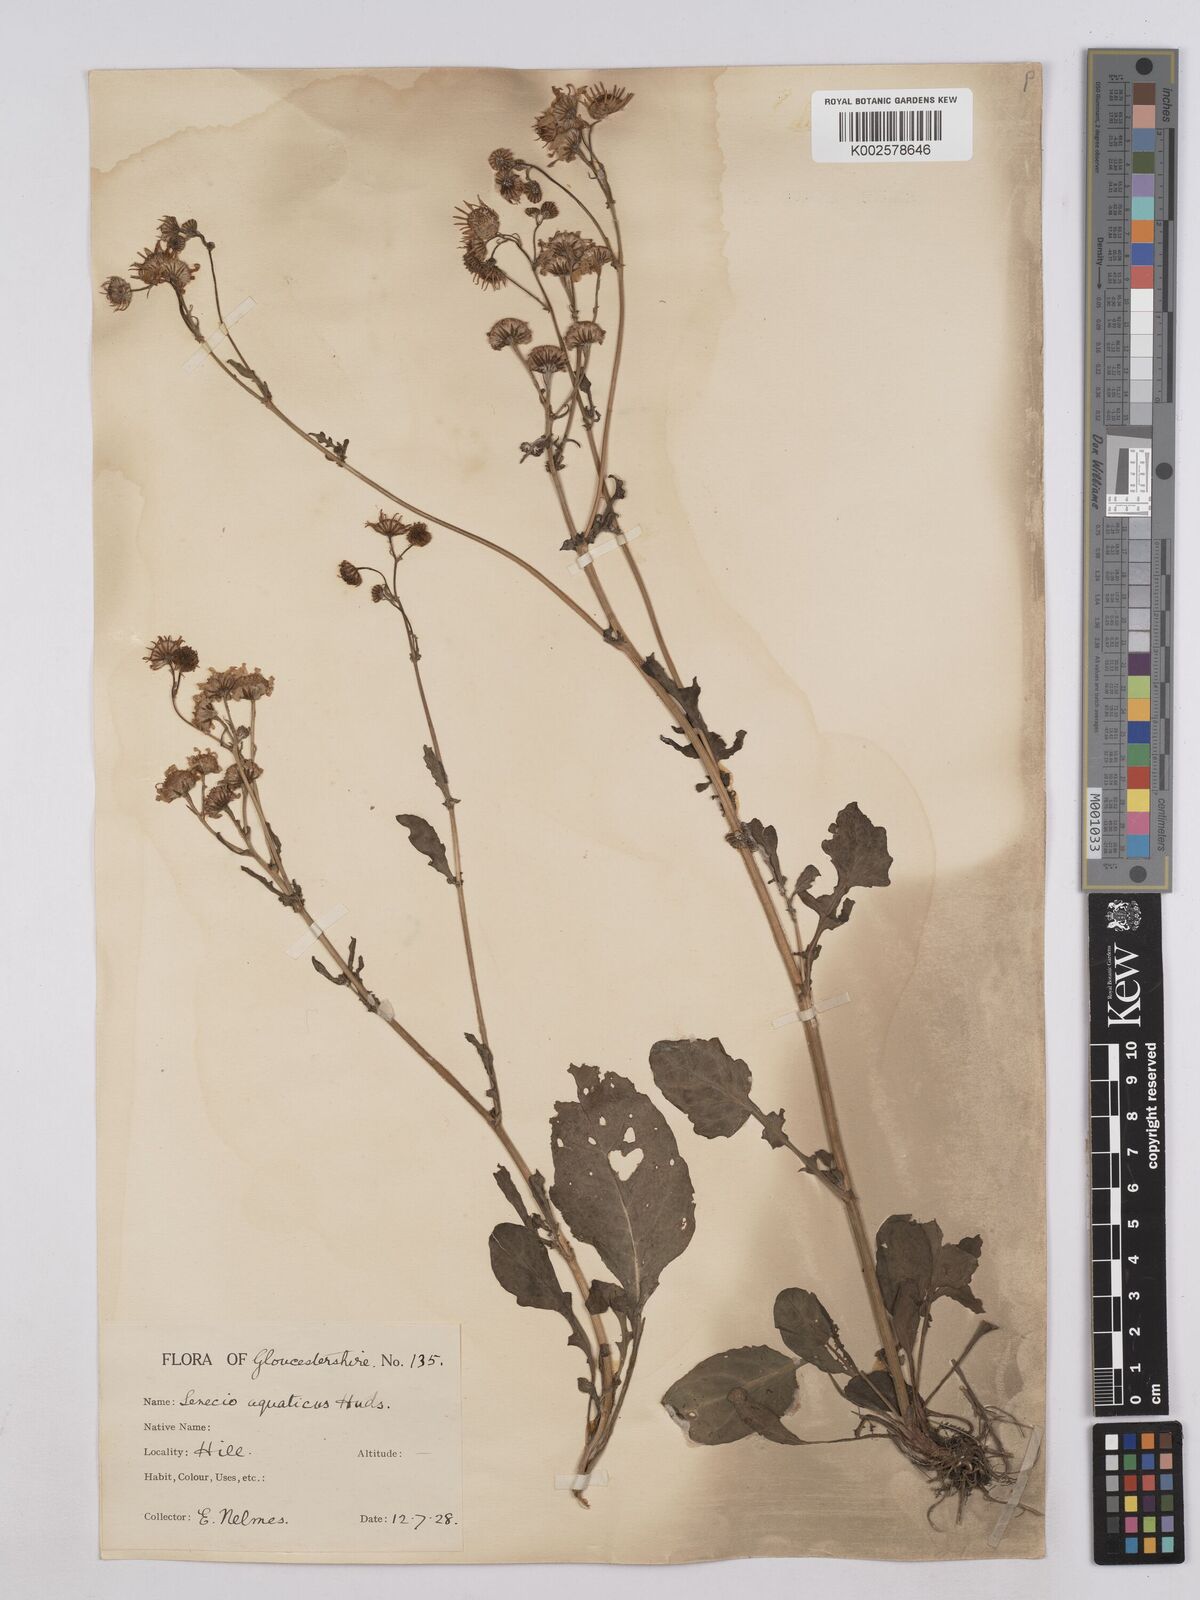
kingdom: Plantae
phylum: Tracheophyta
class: Magnoliopsida
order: Asterales
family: Asteraceae
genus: Jacobaea
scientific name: Jacobaea aquatica
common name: Water ragwort
